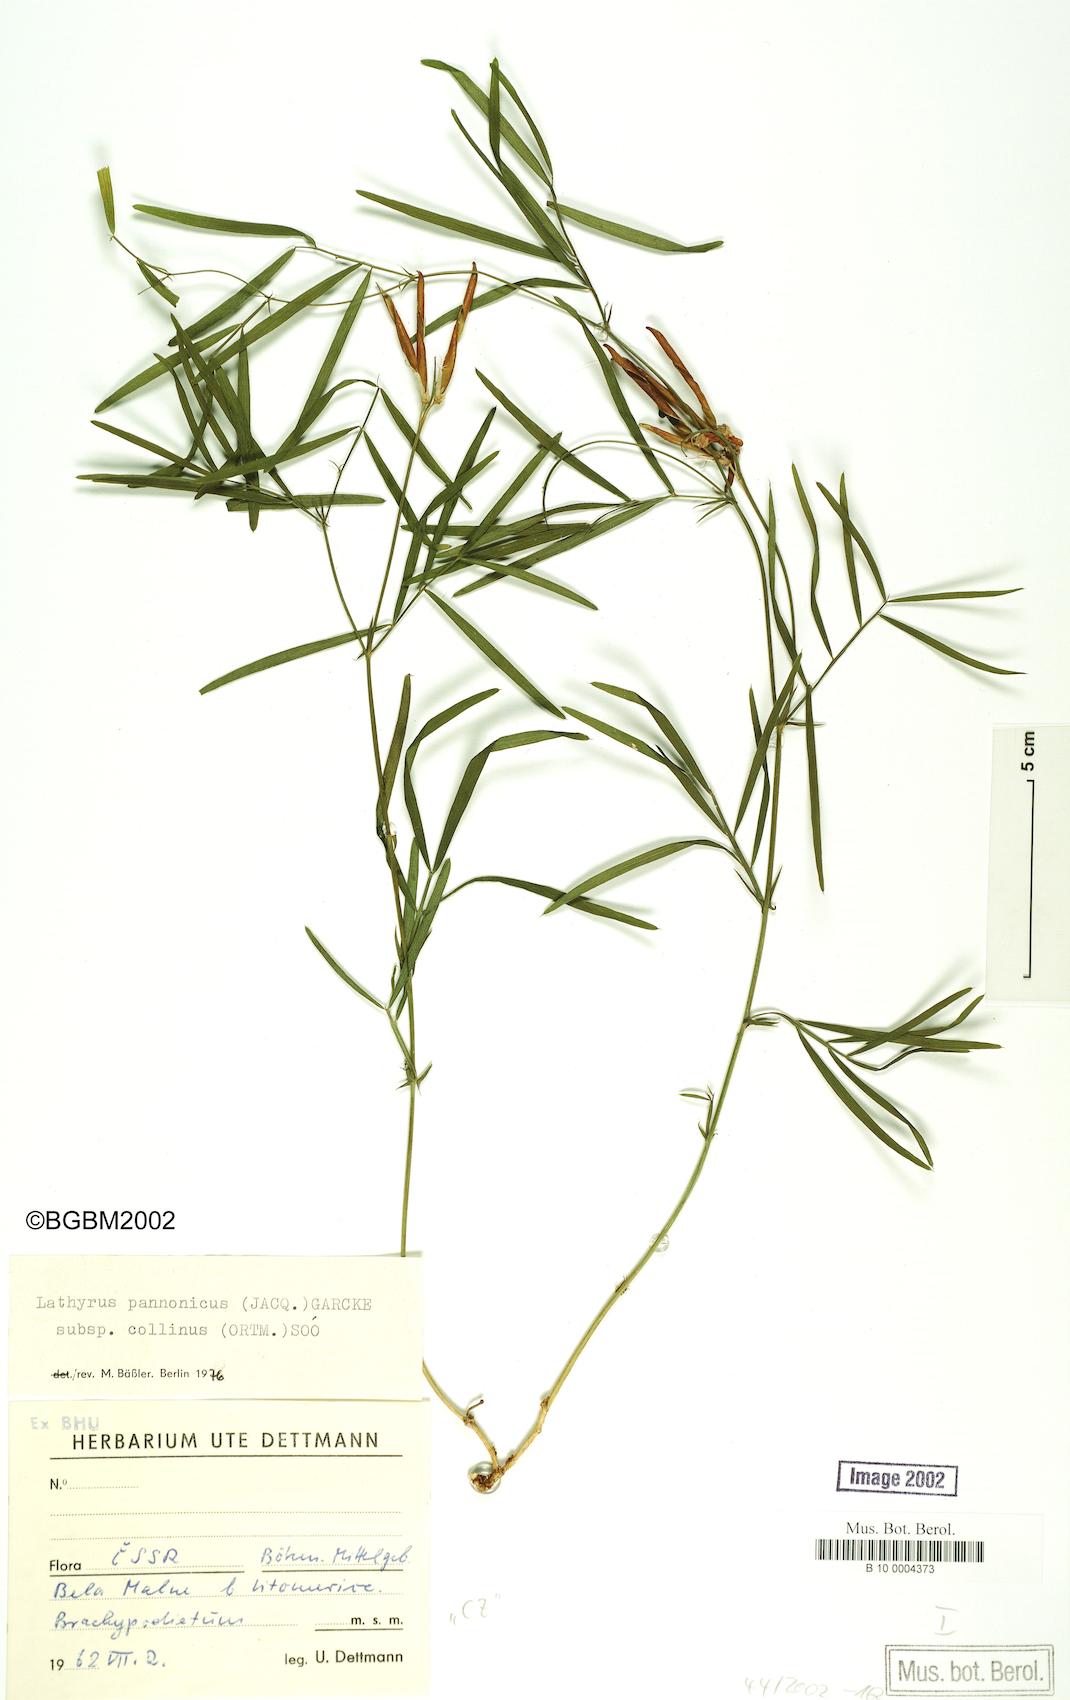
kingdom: Plantae
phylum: Tracheophyta
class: Magnoliopsida
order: Fabales
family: Fabaceae
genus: Lathyrus
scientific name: Lathyrus pannonicus
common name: Pea
